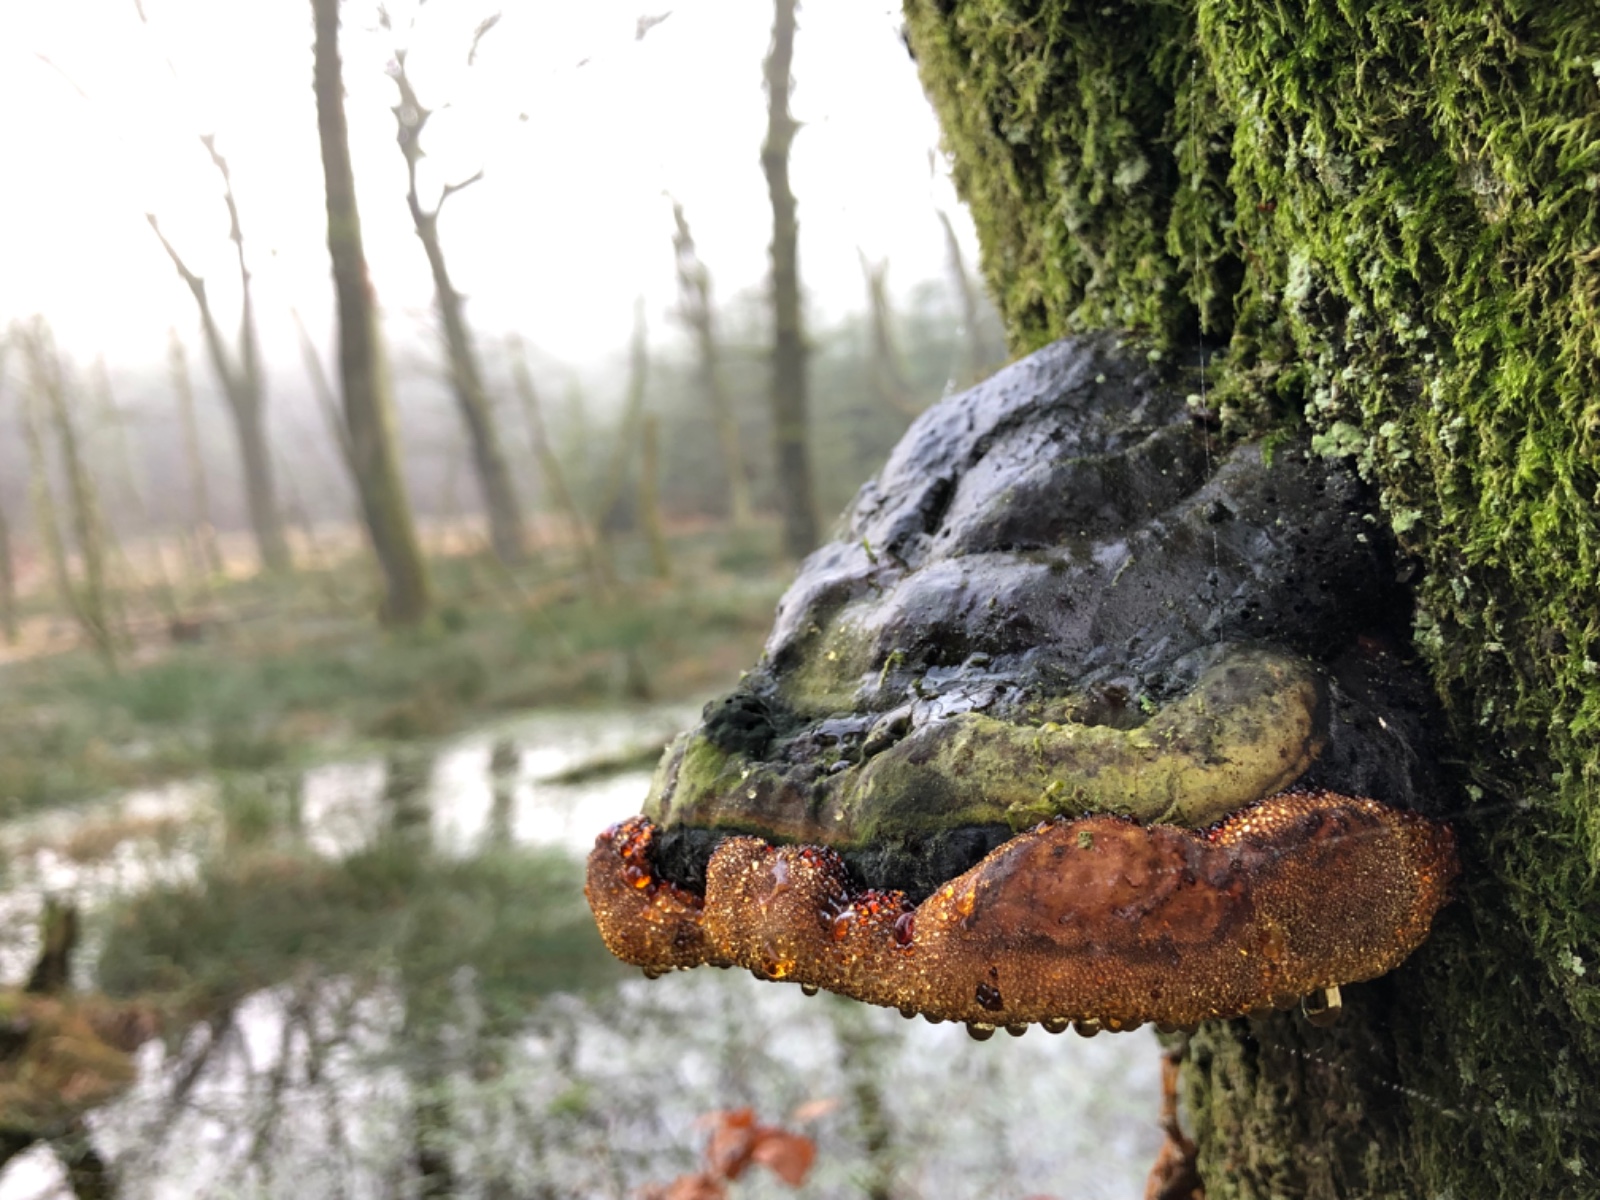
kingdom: Fungi
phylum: Basidiomycota
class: Agaricomycetes
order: Polyporales
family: Polyporaceae
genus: Fomes
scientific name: Fomes fomentarius
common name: tøndersvamp
